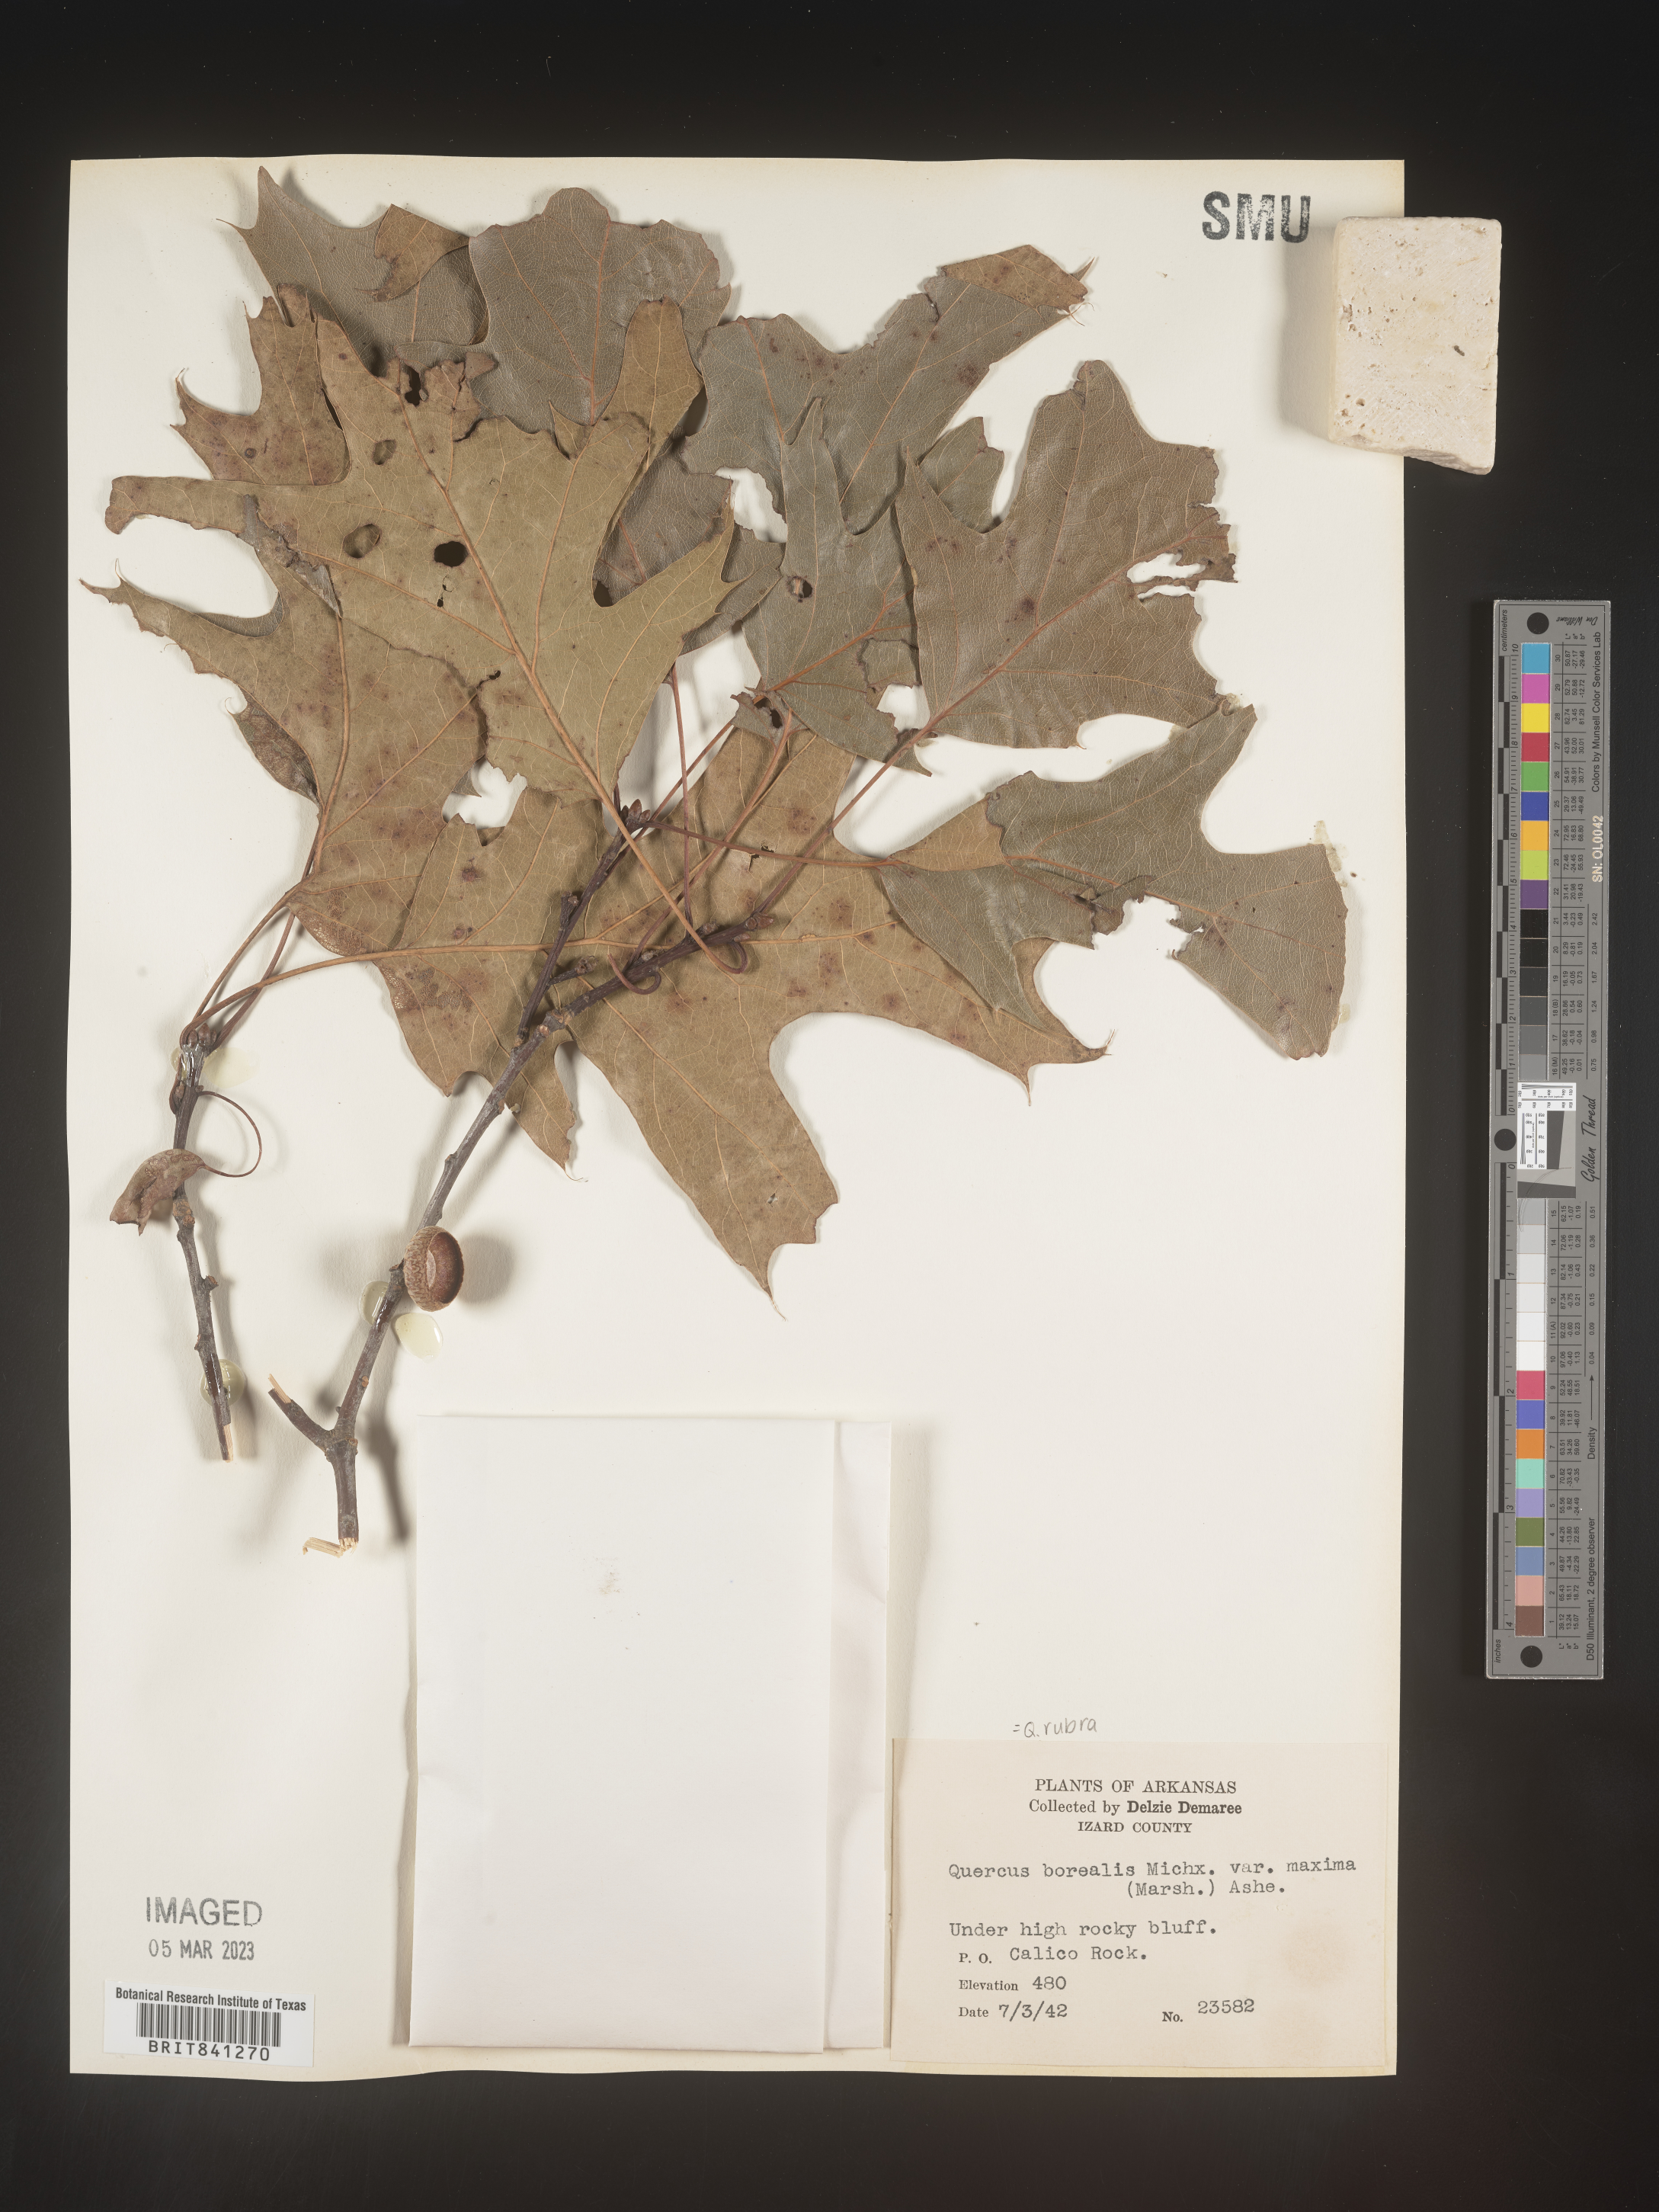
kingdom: Plantae
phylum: Tracheophyta
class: Magnoliopsida
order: Fagales
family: Fagaceae
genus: Quercus
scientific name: Quercus rubra
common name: Red oak
